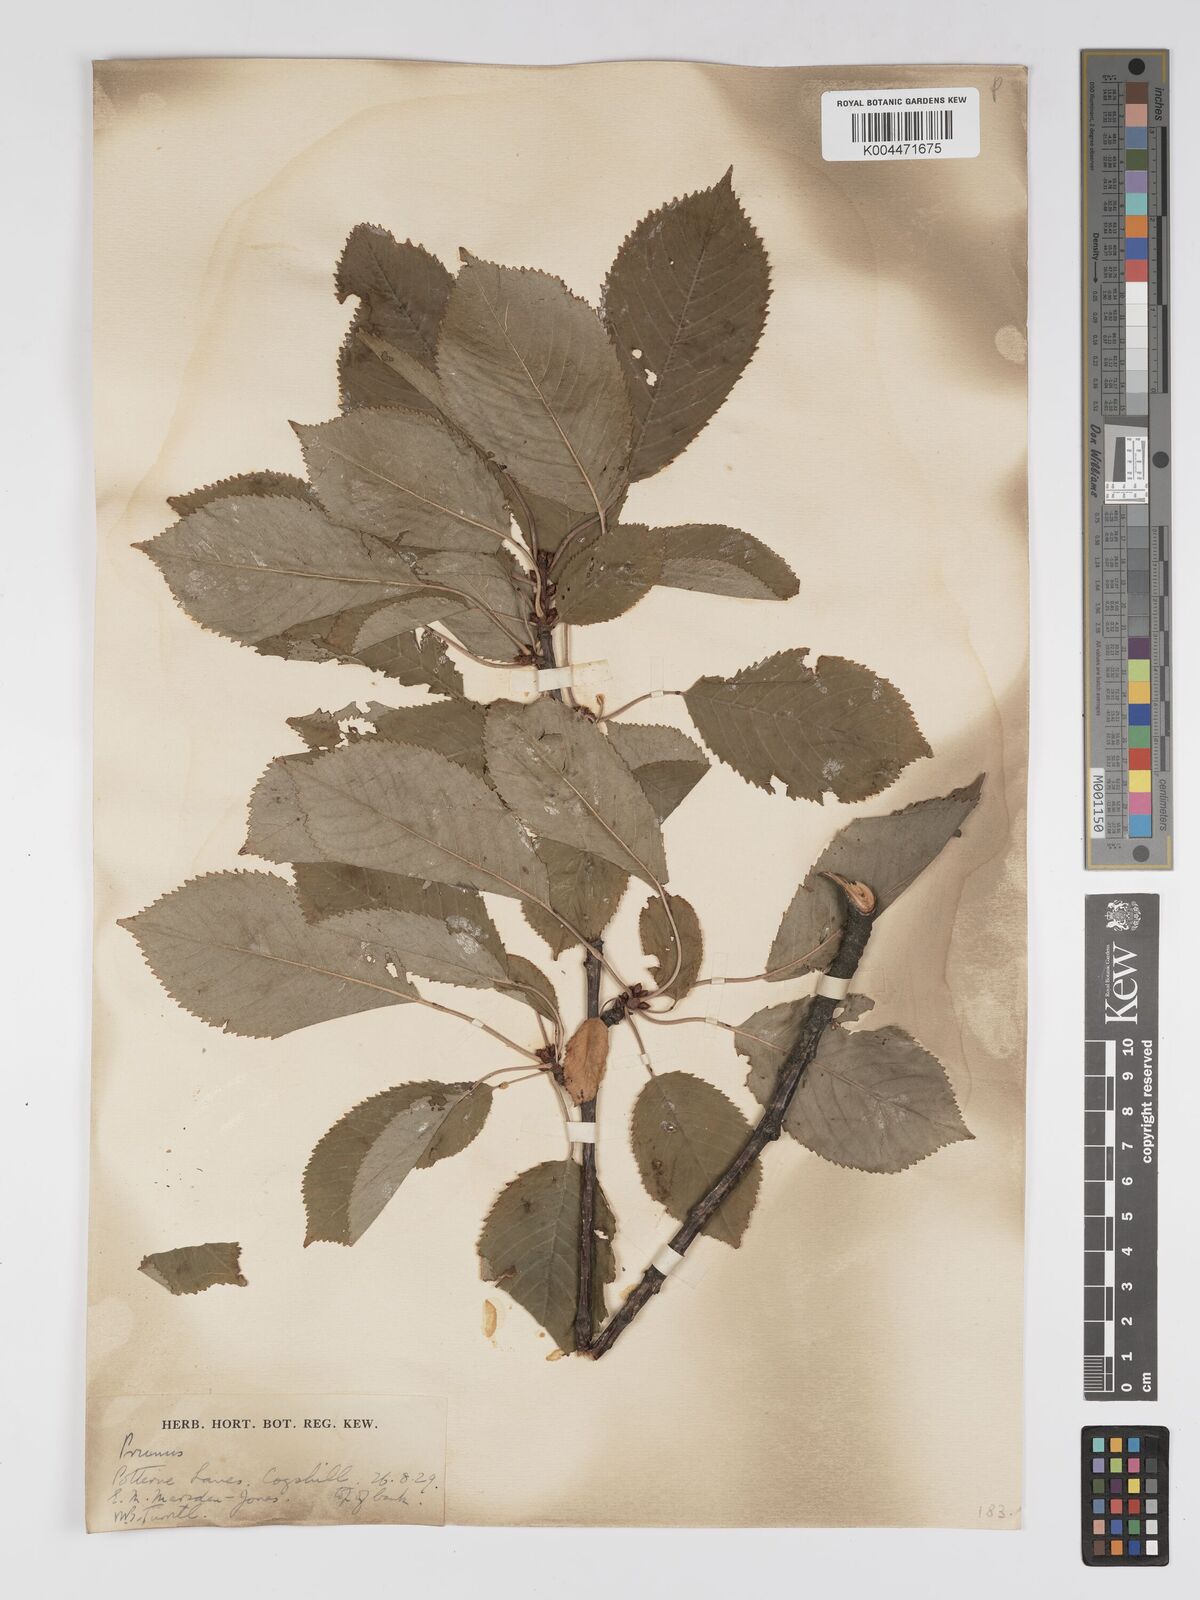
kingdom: Plantae
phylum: Tracheophyta
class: Magnoliopsida
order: Rosales
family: Rosaceae
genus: Prunus
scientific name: Prunus
